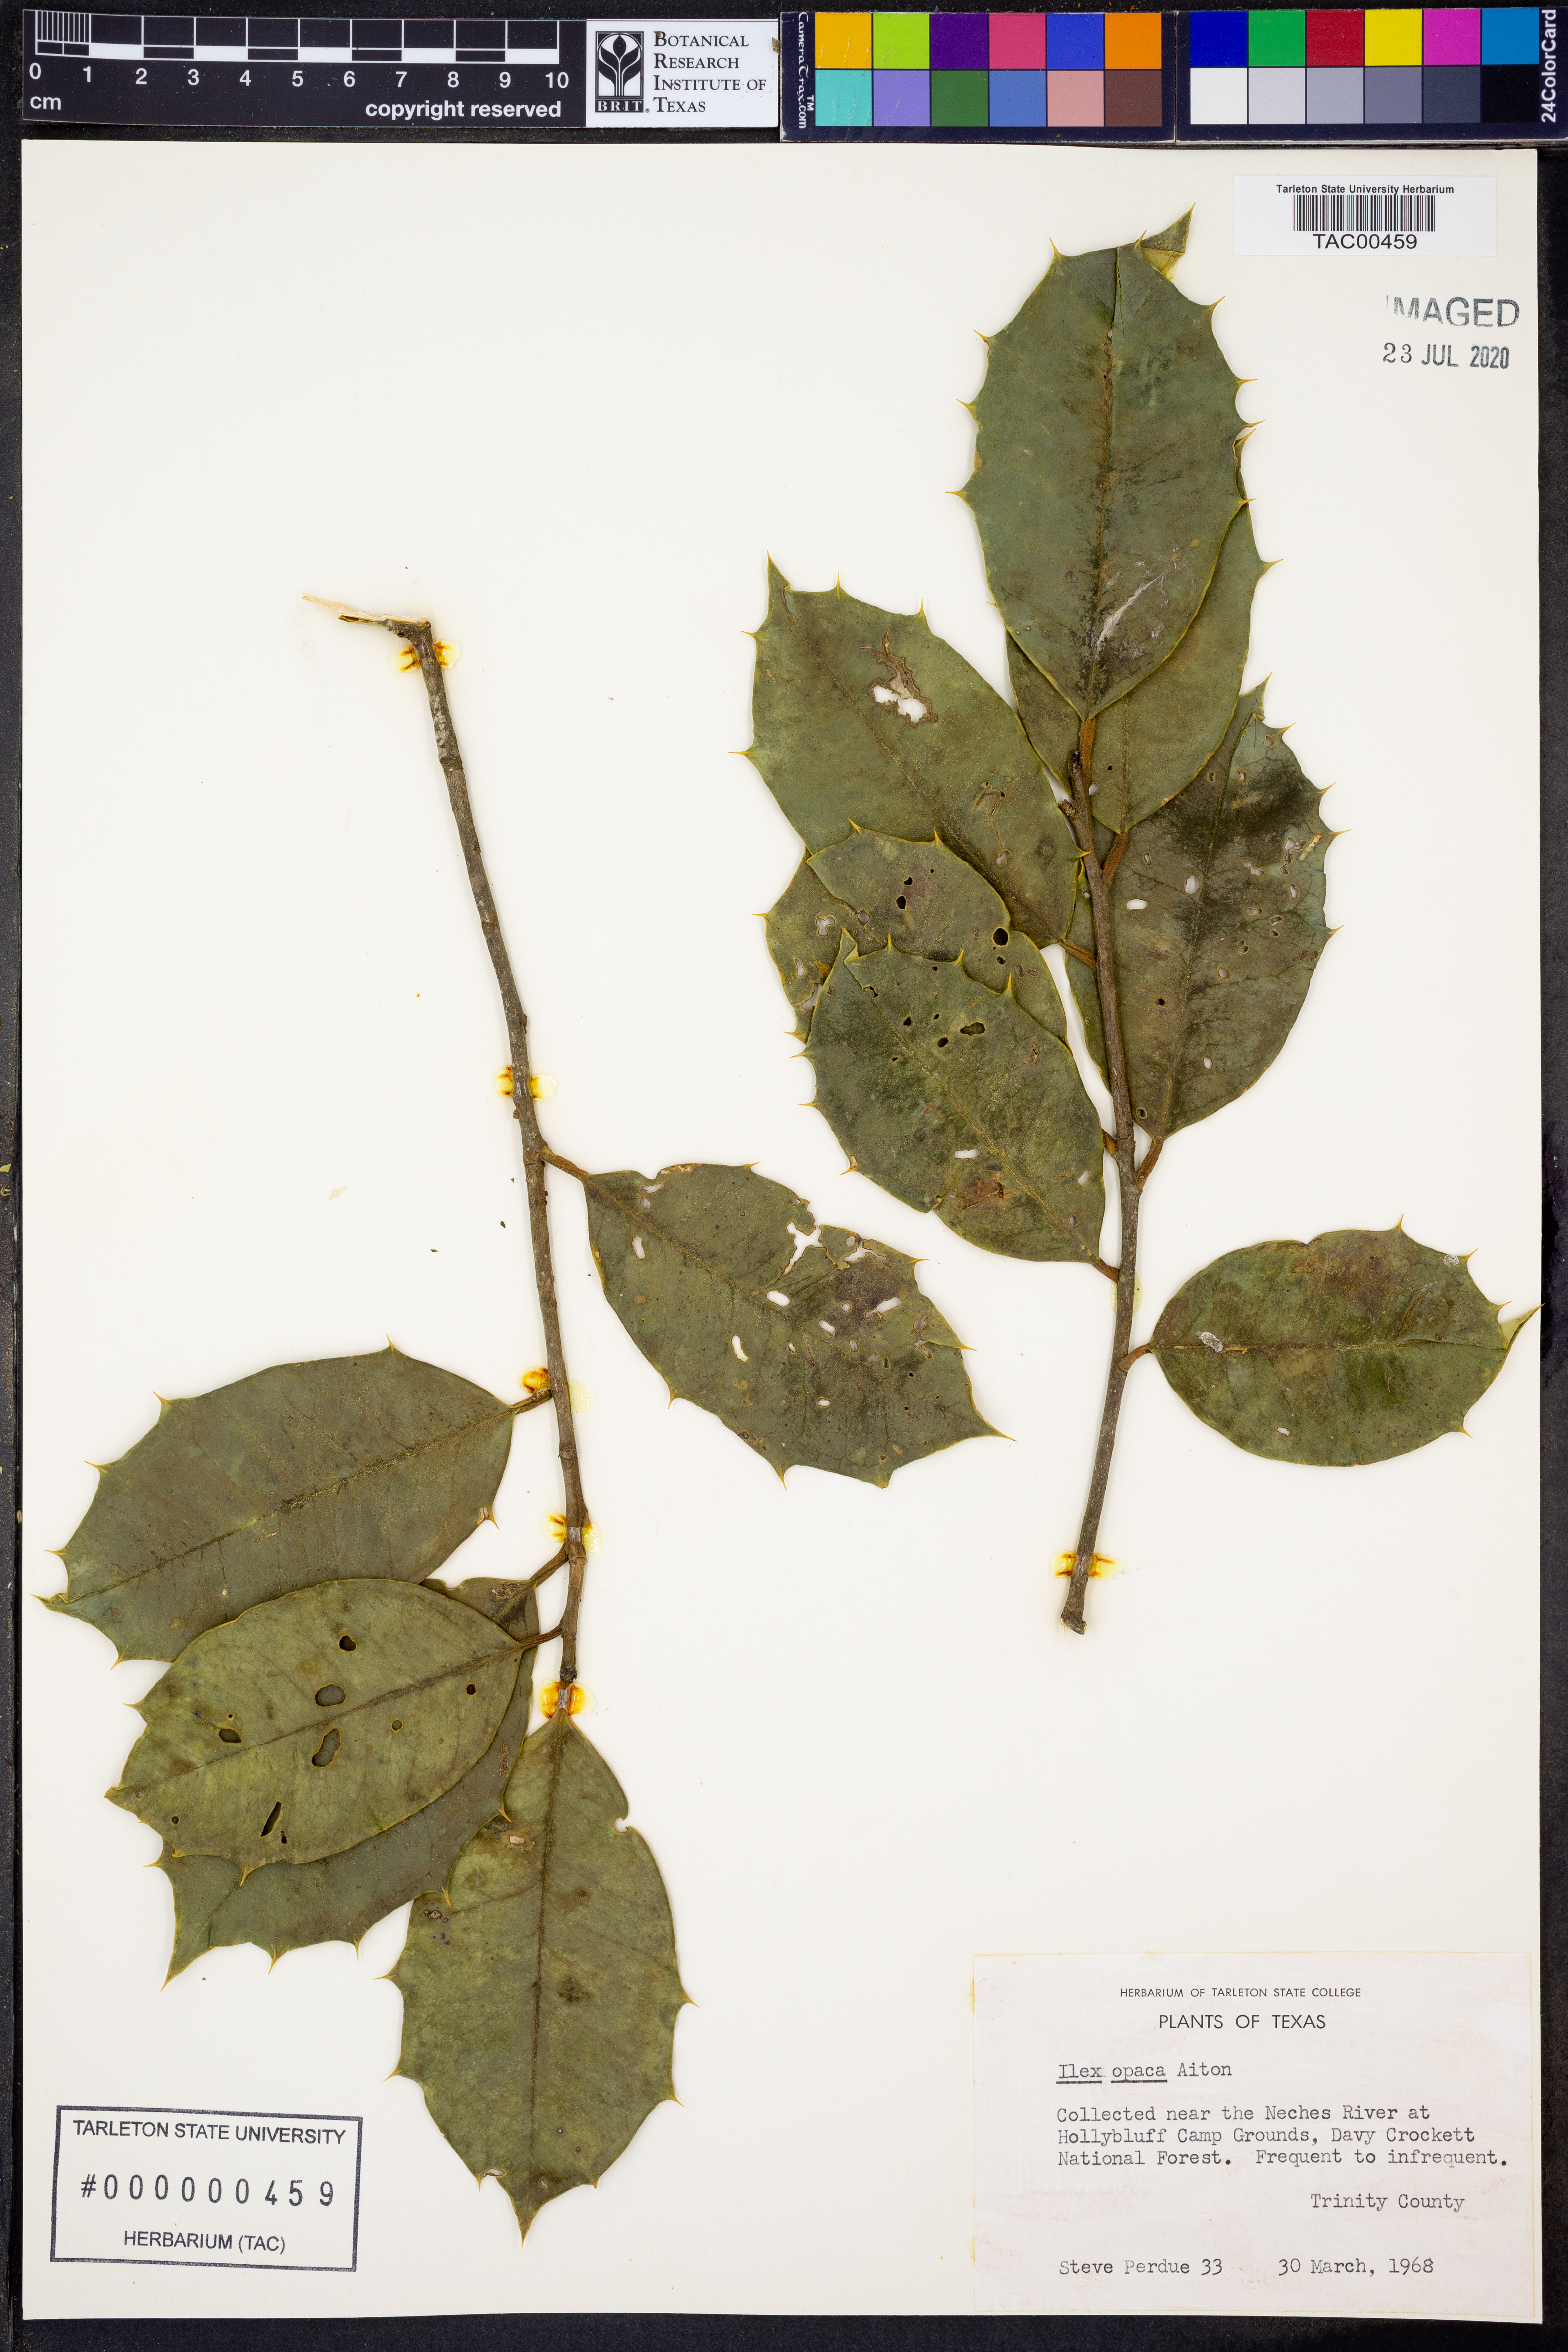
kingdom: Plantae
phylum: Tracheophyta
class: Magnoliopsida
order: Aquifoliales
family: Aquifoliaceae
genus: Ilex
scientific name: Ilex opaca
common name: American holly
